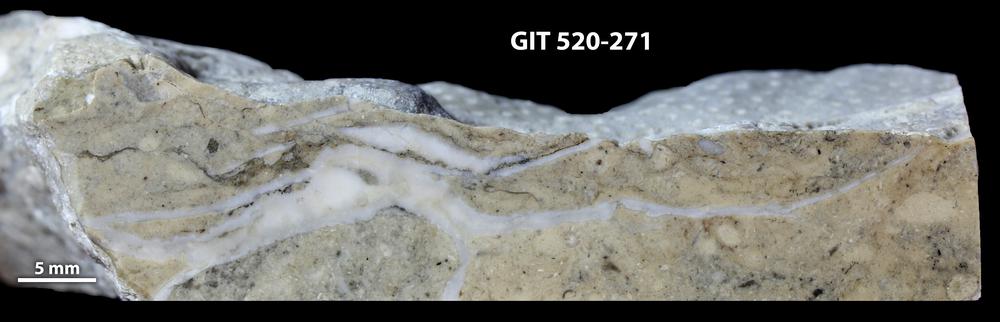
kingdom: Animalia
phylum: Cnidaria
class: Anthozoa
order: Heliolitina
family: Stelliporellidae
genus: Stelliporella
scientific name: Stelliporella
